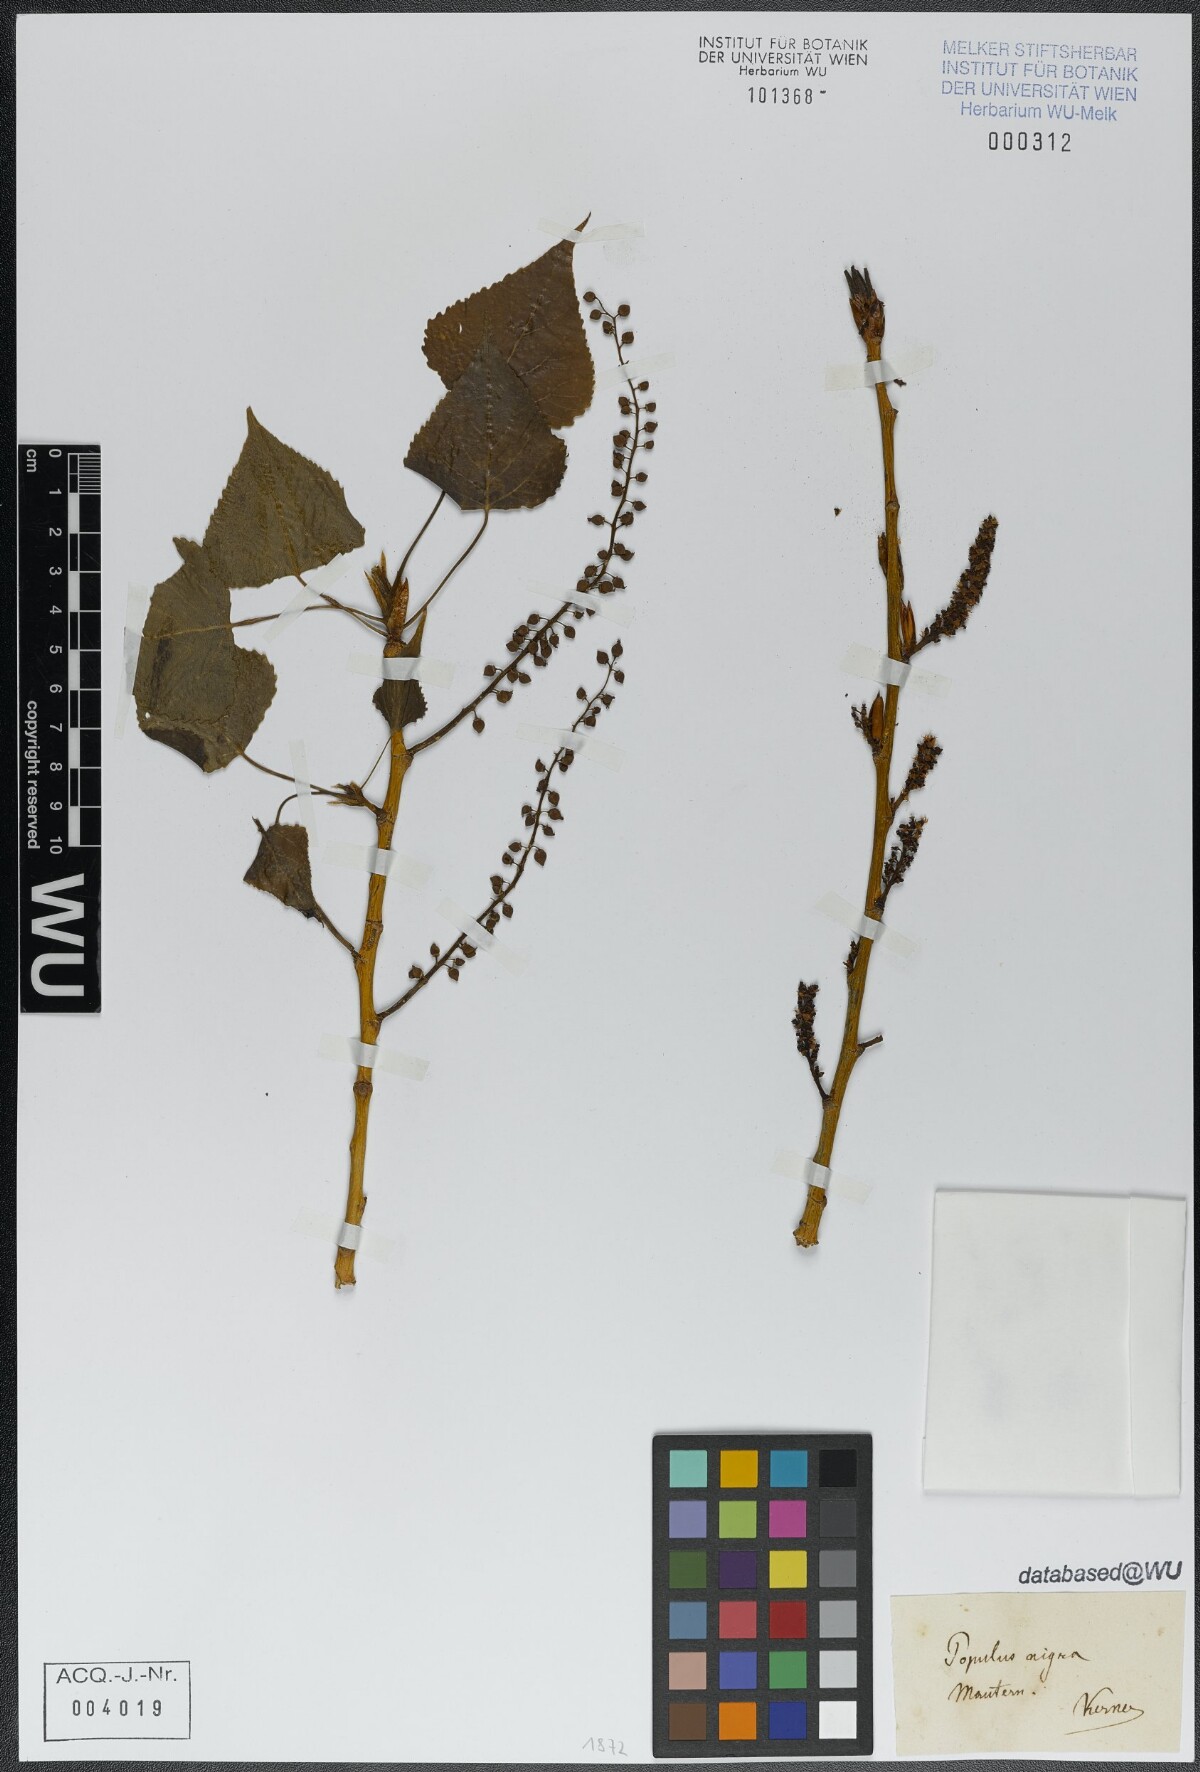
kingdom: Plantae
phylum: Tracheophyta
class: Magnoliopsida
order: Malpighiales
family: Salicaceae
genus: Populus
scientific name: Populus nigra
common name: Black poplar
